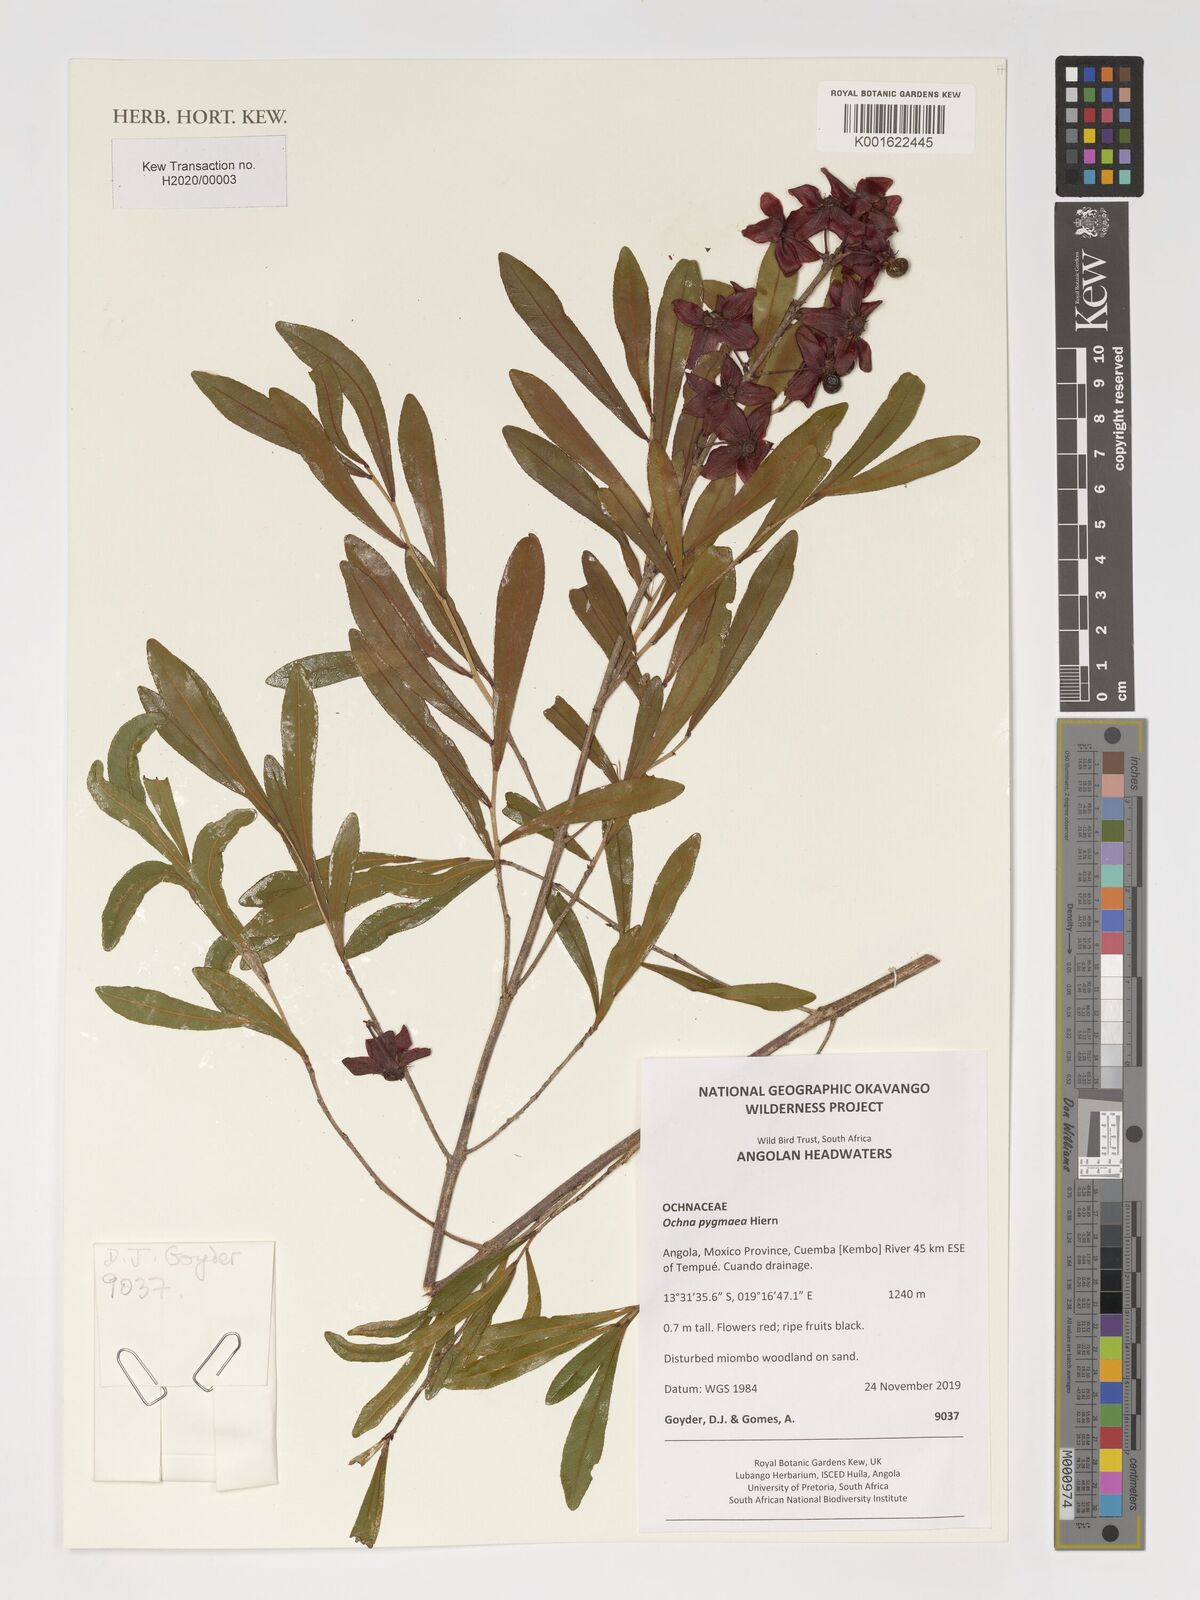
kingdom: Plantae
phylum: Tracheophyta
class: Magnoliopsida
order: Malpighiales
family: Ochnaceae
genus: Ochna
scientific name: Ochna pygmaea
